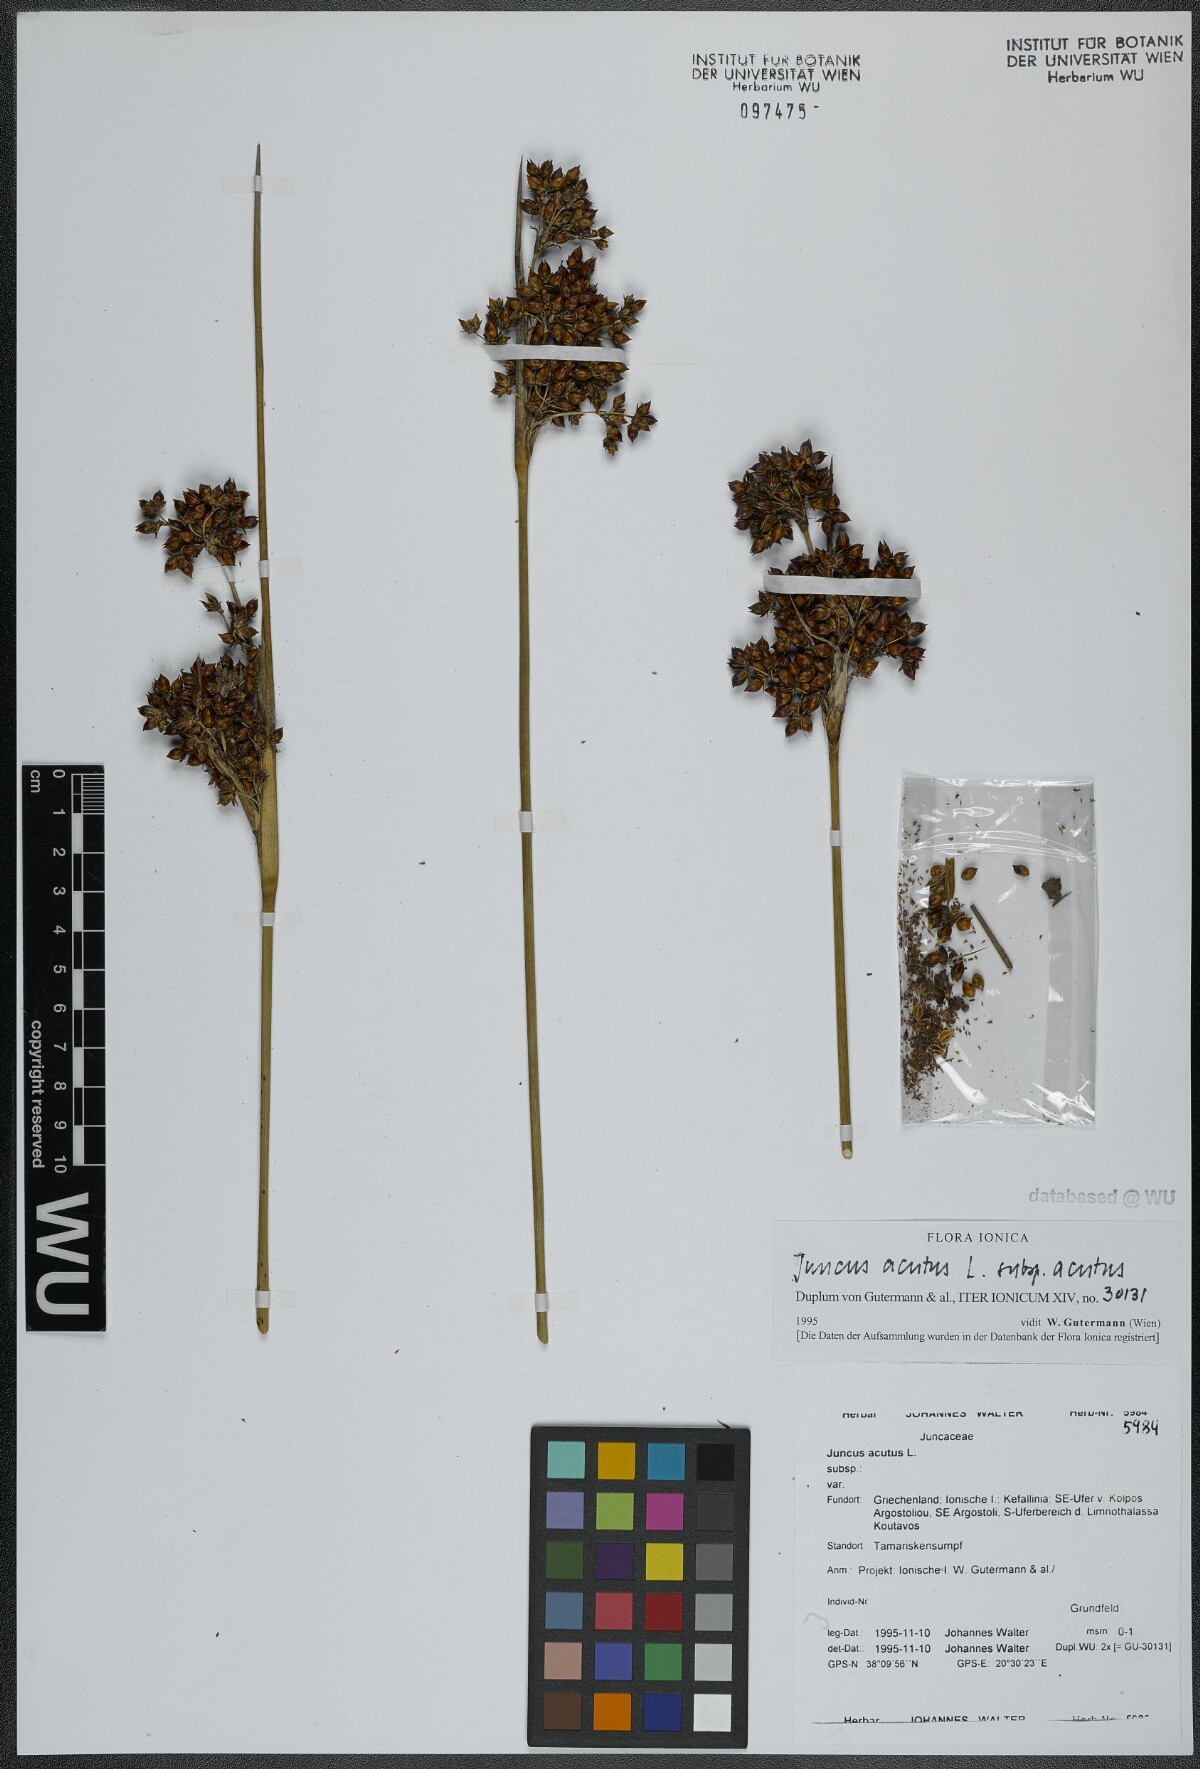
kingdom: Plantae
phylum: Tracheophyta
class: Liliopsida
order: Poales
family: Juncaceae
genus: Juncus
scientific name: Juncus acutus
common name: Sharp rush
